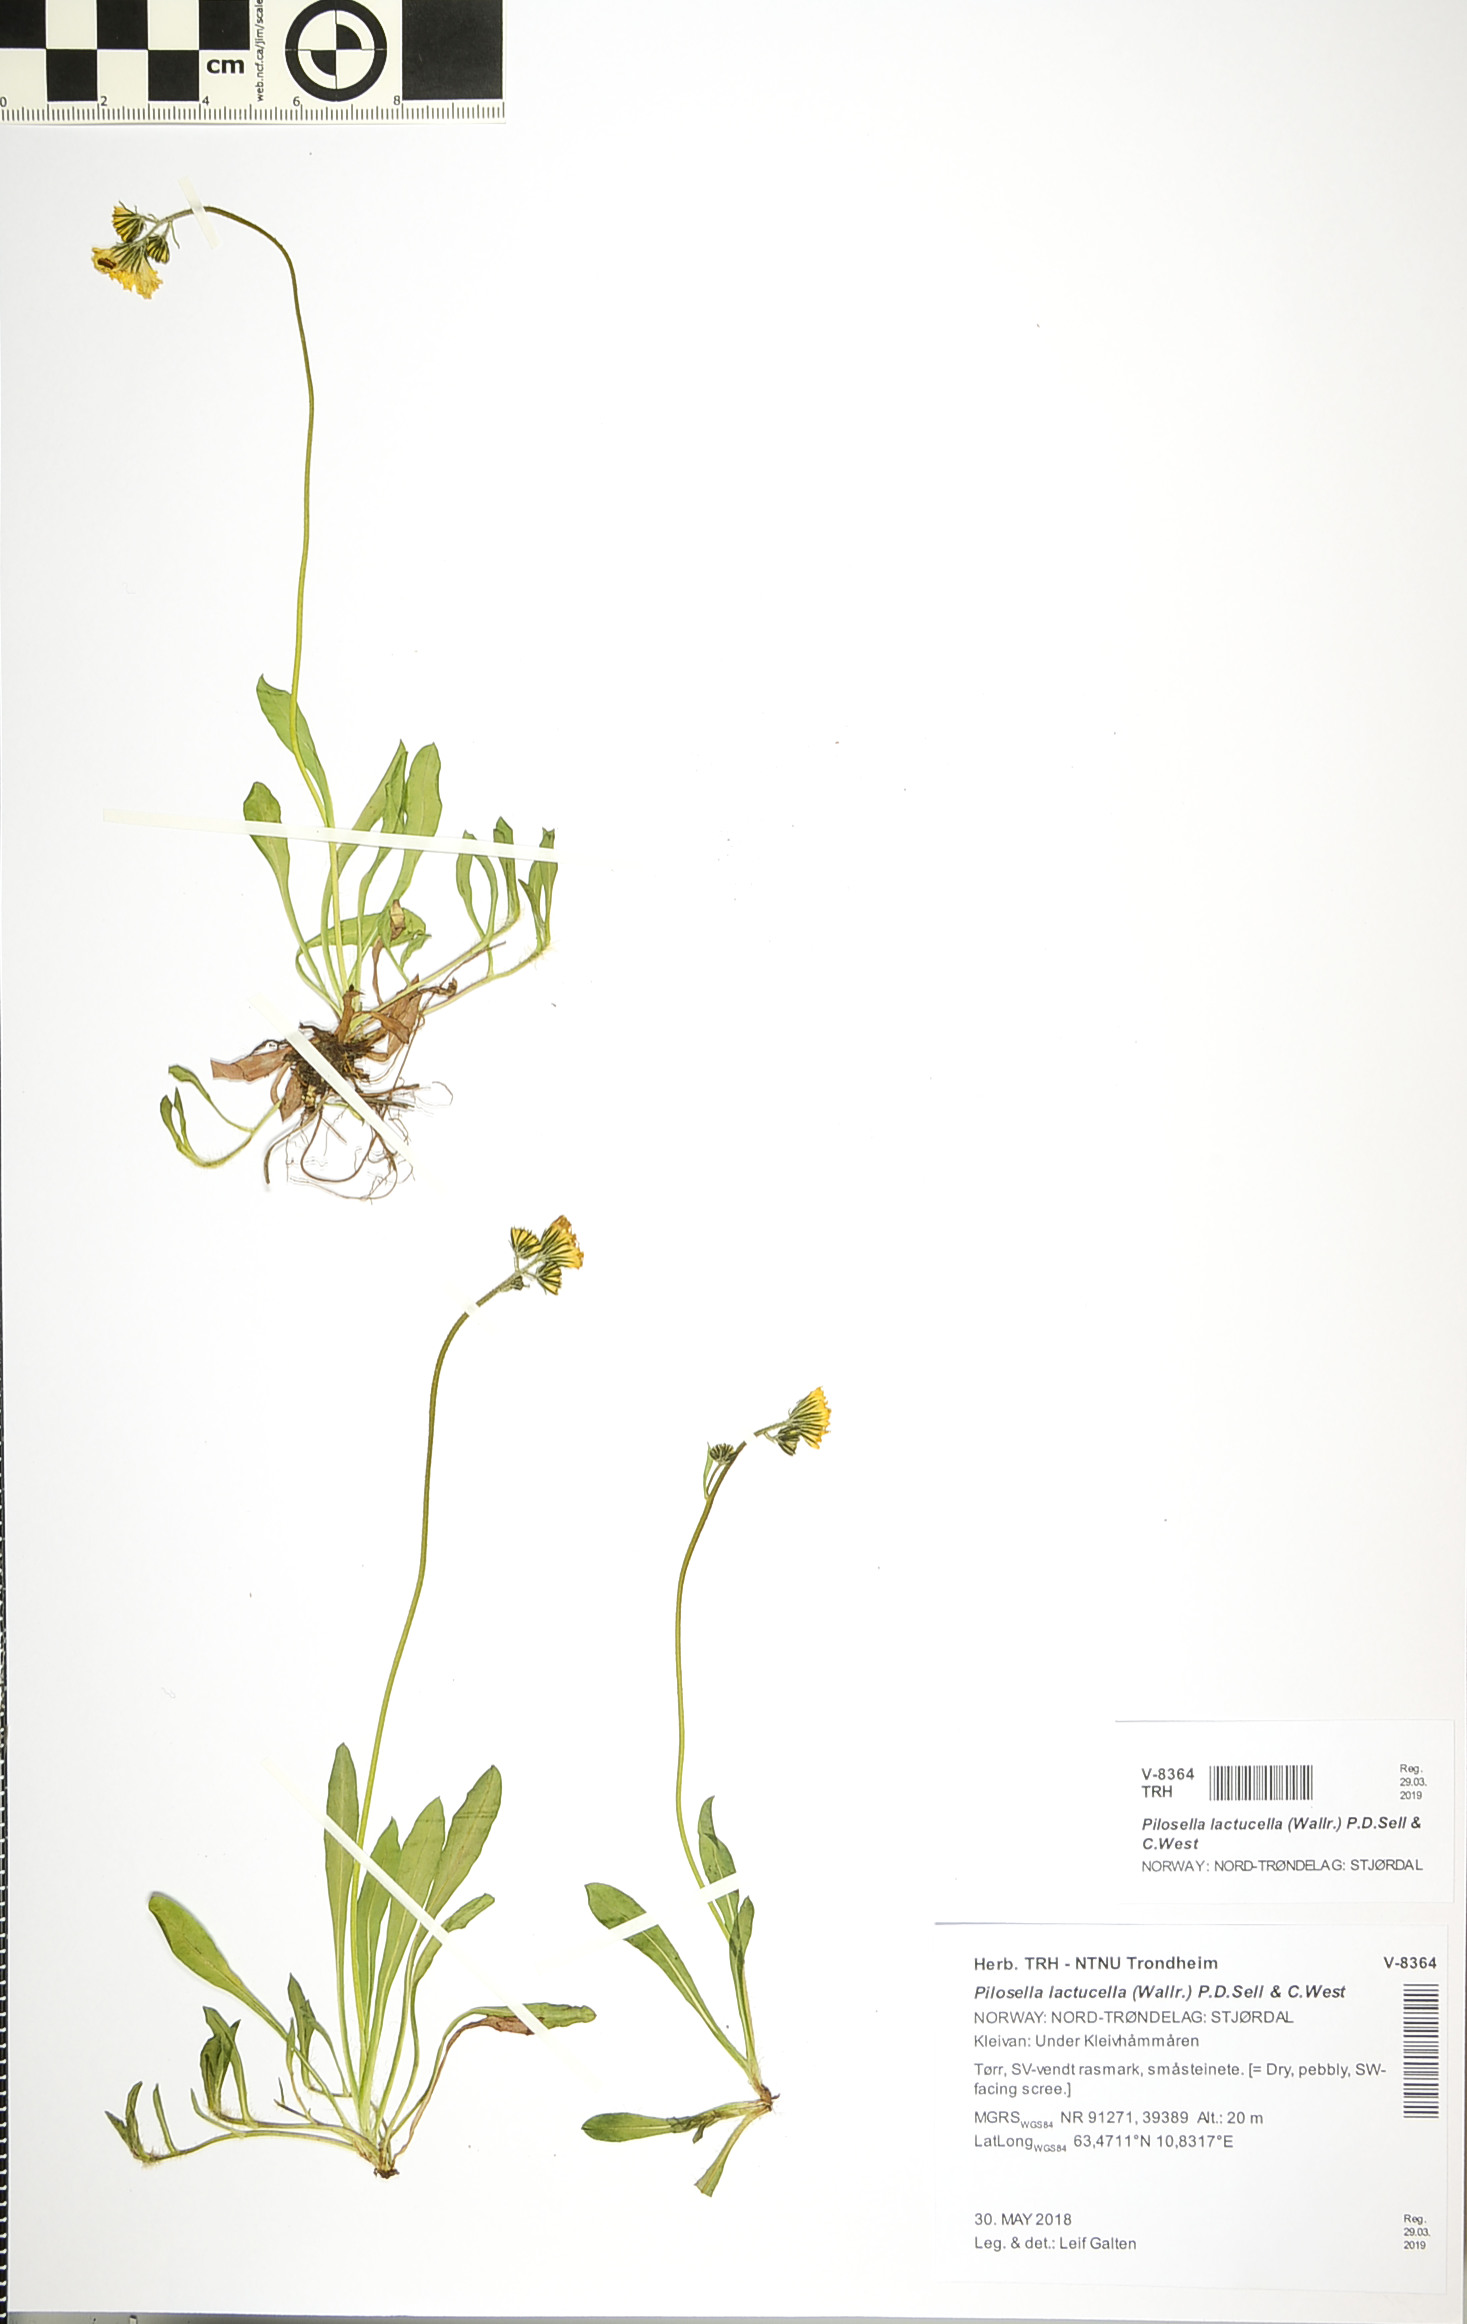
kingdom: Plantae
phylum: Tracheophyta
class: Magnoliopsida
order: Asterales
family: Asteraceae
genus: Pilosella
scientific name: Pilosella lactucella
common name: Glaucous fox-and-cubs
